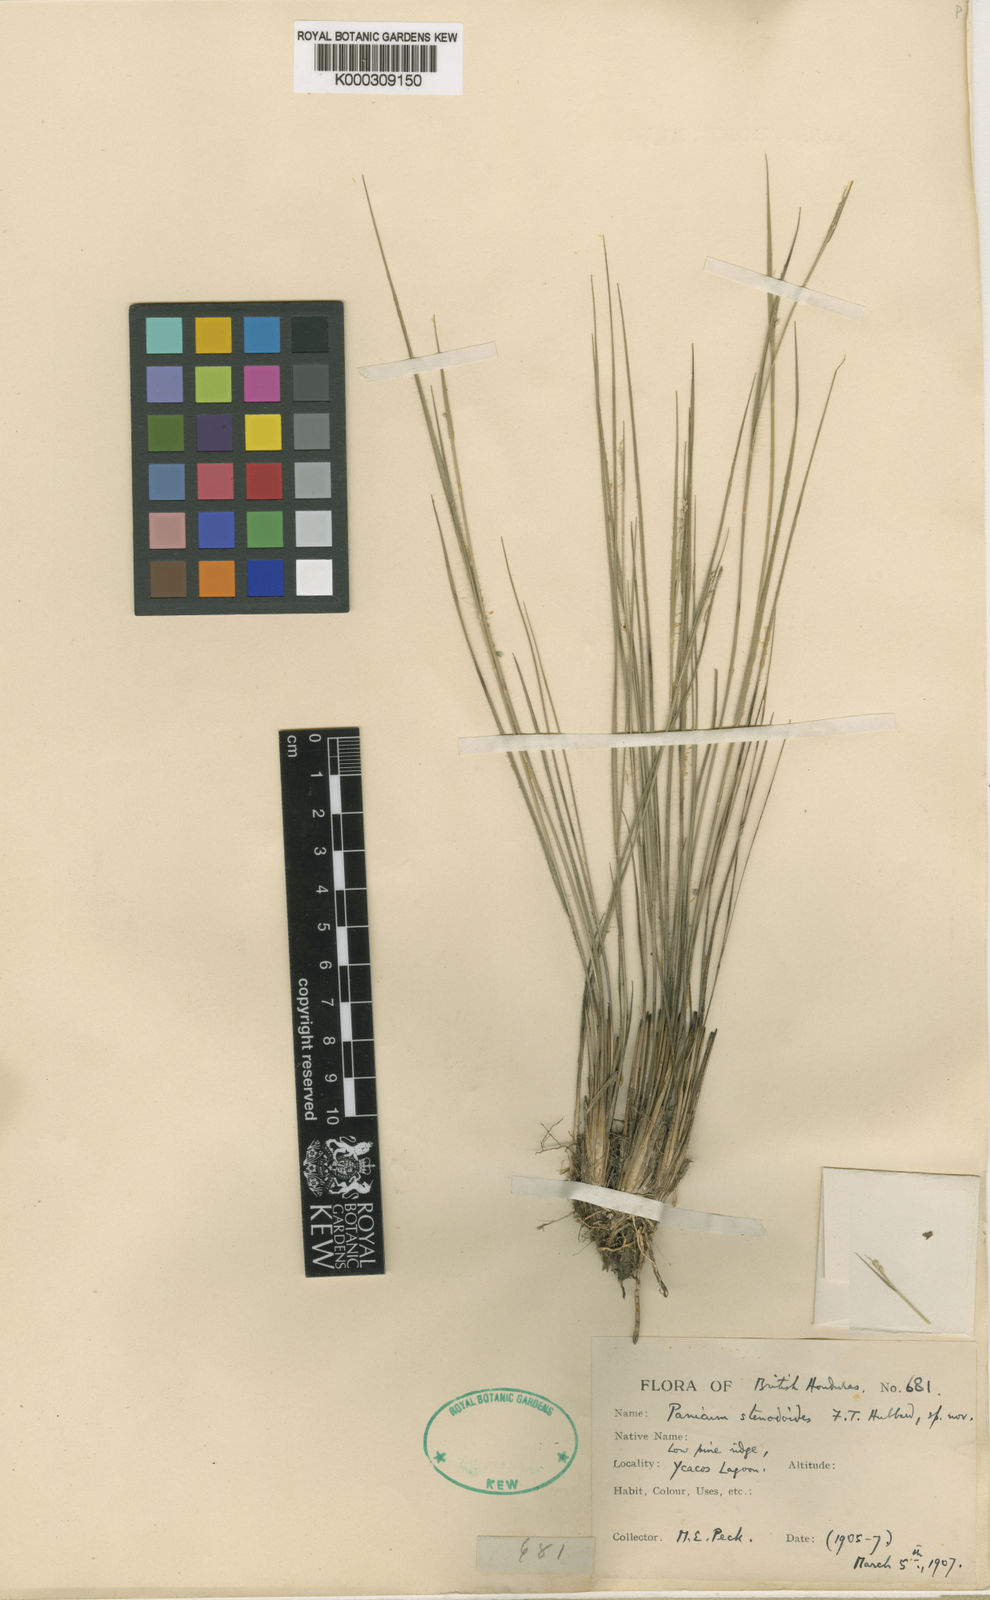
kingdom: Plantae
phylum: Tracheophyta
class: Liliopsida
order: Poales
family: Poaceae
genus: Coleataenia
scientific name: Coleataenia caricoides
